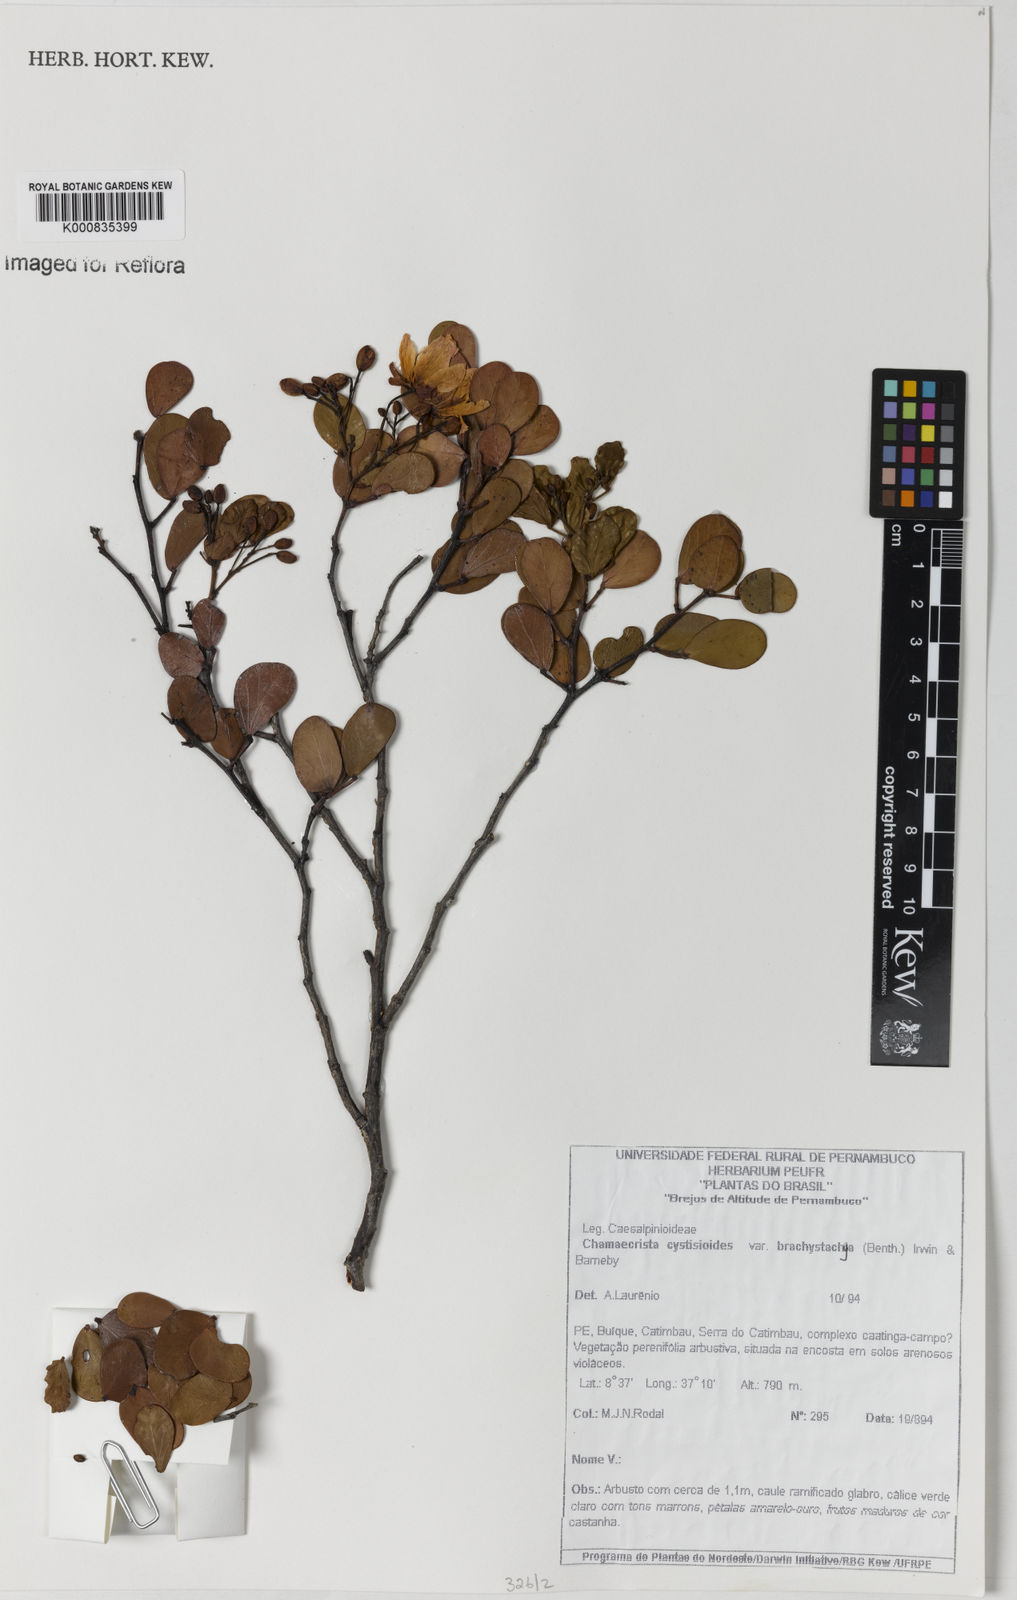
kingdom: Plantae
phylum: Tracheophyta
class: Magnoliopsida
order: Fabales
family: Fabaceae
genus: Chamaecrista
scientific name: Chamaecrista cytisoides
